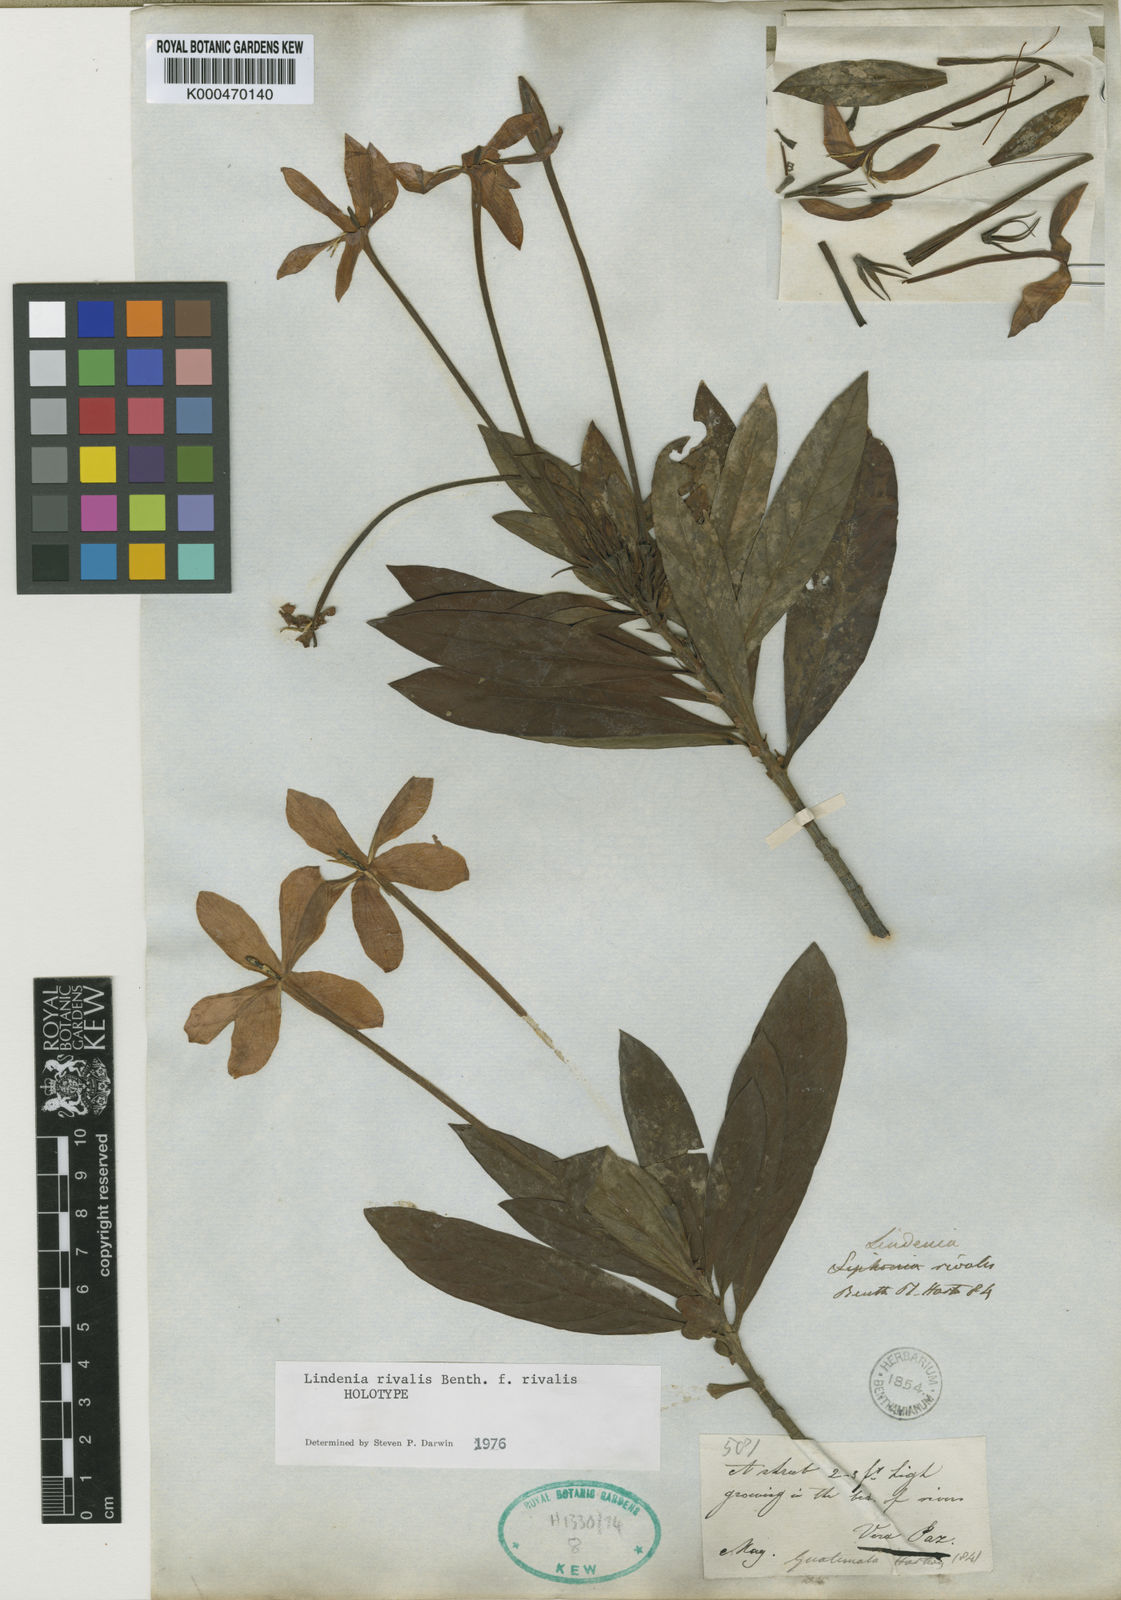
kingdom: Plantae
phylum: Tracheophyta
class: Magnoliopsida
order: Gentianales
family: Rubiaceae
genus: Augusta
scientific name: Augusta
